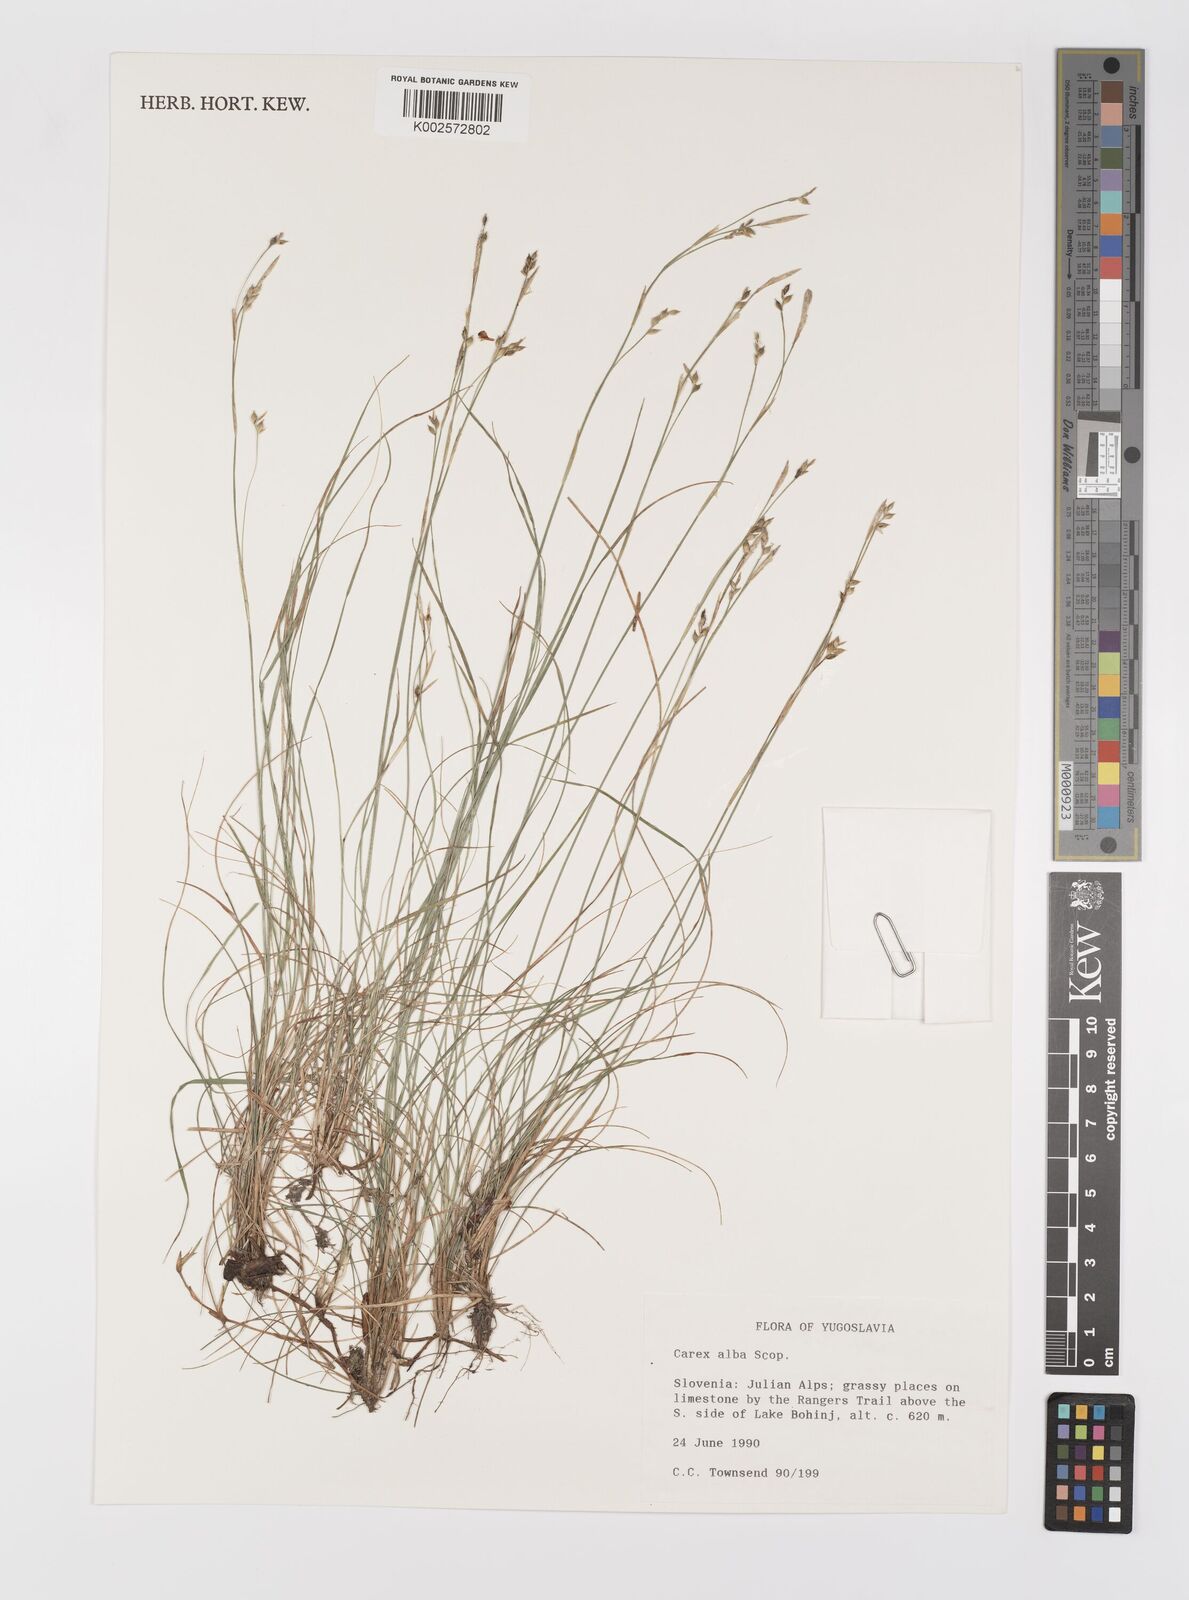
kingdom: Plantae
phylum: Tracheophyta
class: Liliopsida
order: Poales
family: Cyperaceae
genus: Carex
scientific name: Carex alba
